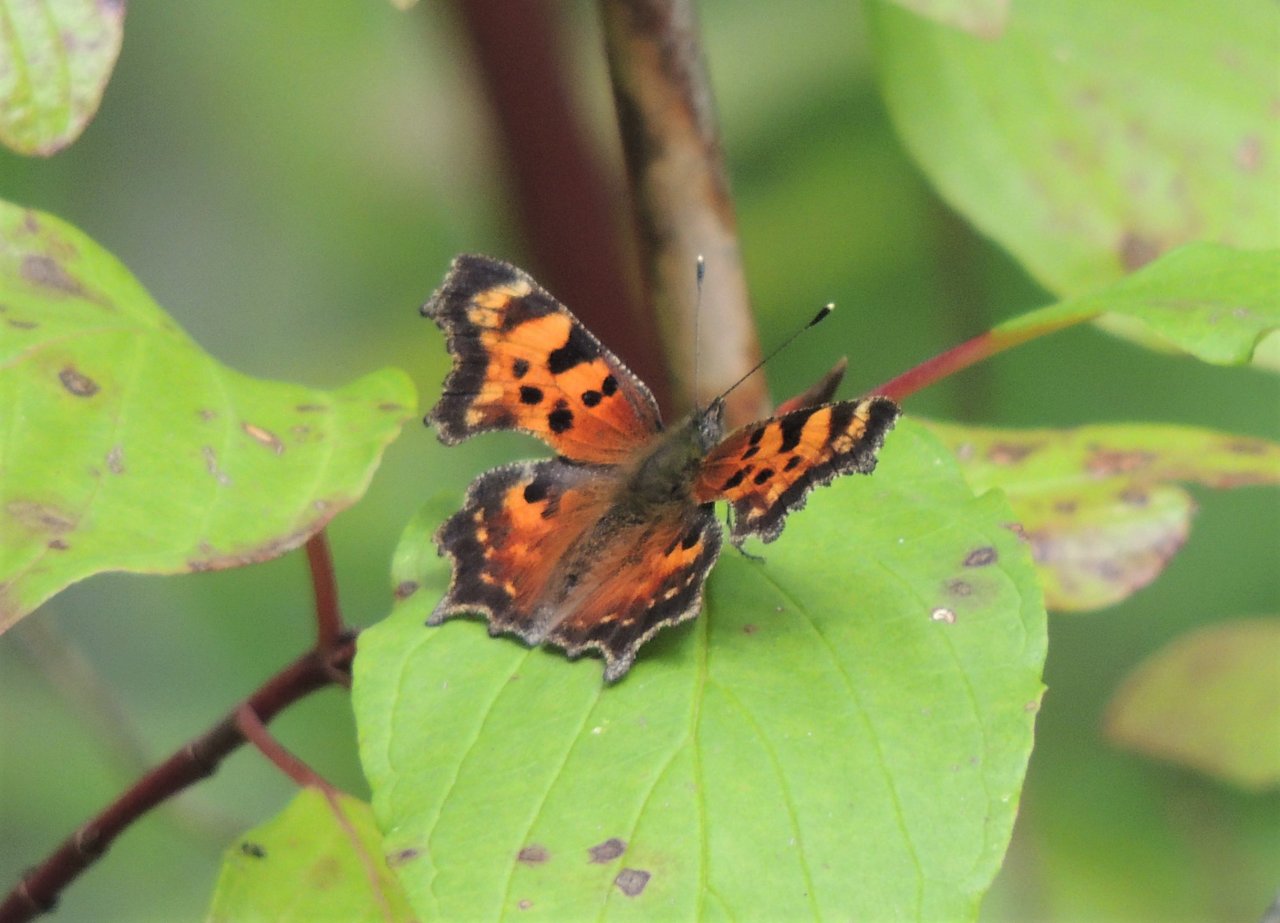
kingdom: Animalia
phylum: Arthropoda
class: Insecta
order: Lepidoptera
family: Nymphalidae
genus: Polygonia
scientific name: Polygonia faunus
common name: Green Comma
